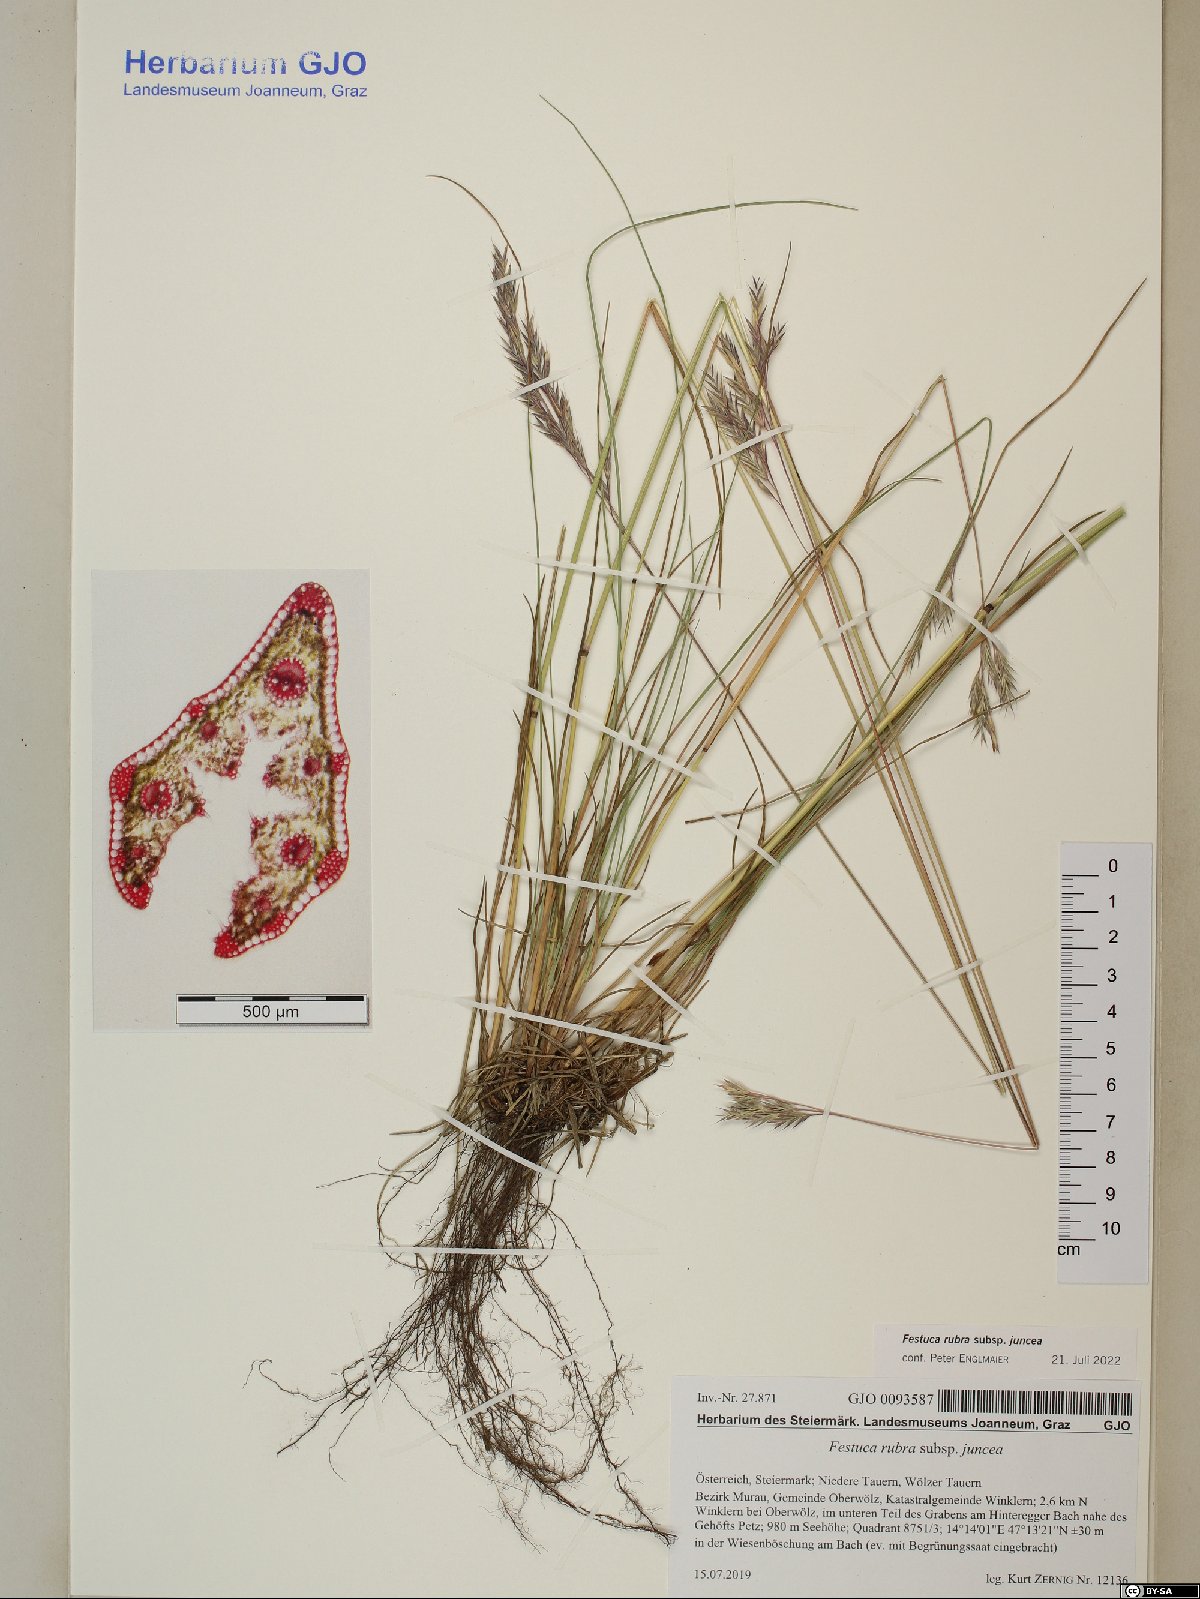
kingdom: Plantae
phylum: Tracheophyta
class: Liliopsida
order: Poales
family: Poaceae
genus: Festuca
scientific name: Festuca rubra
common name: Red fescue
